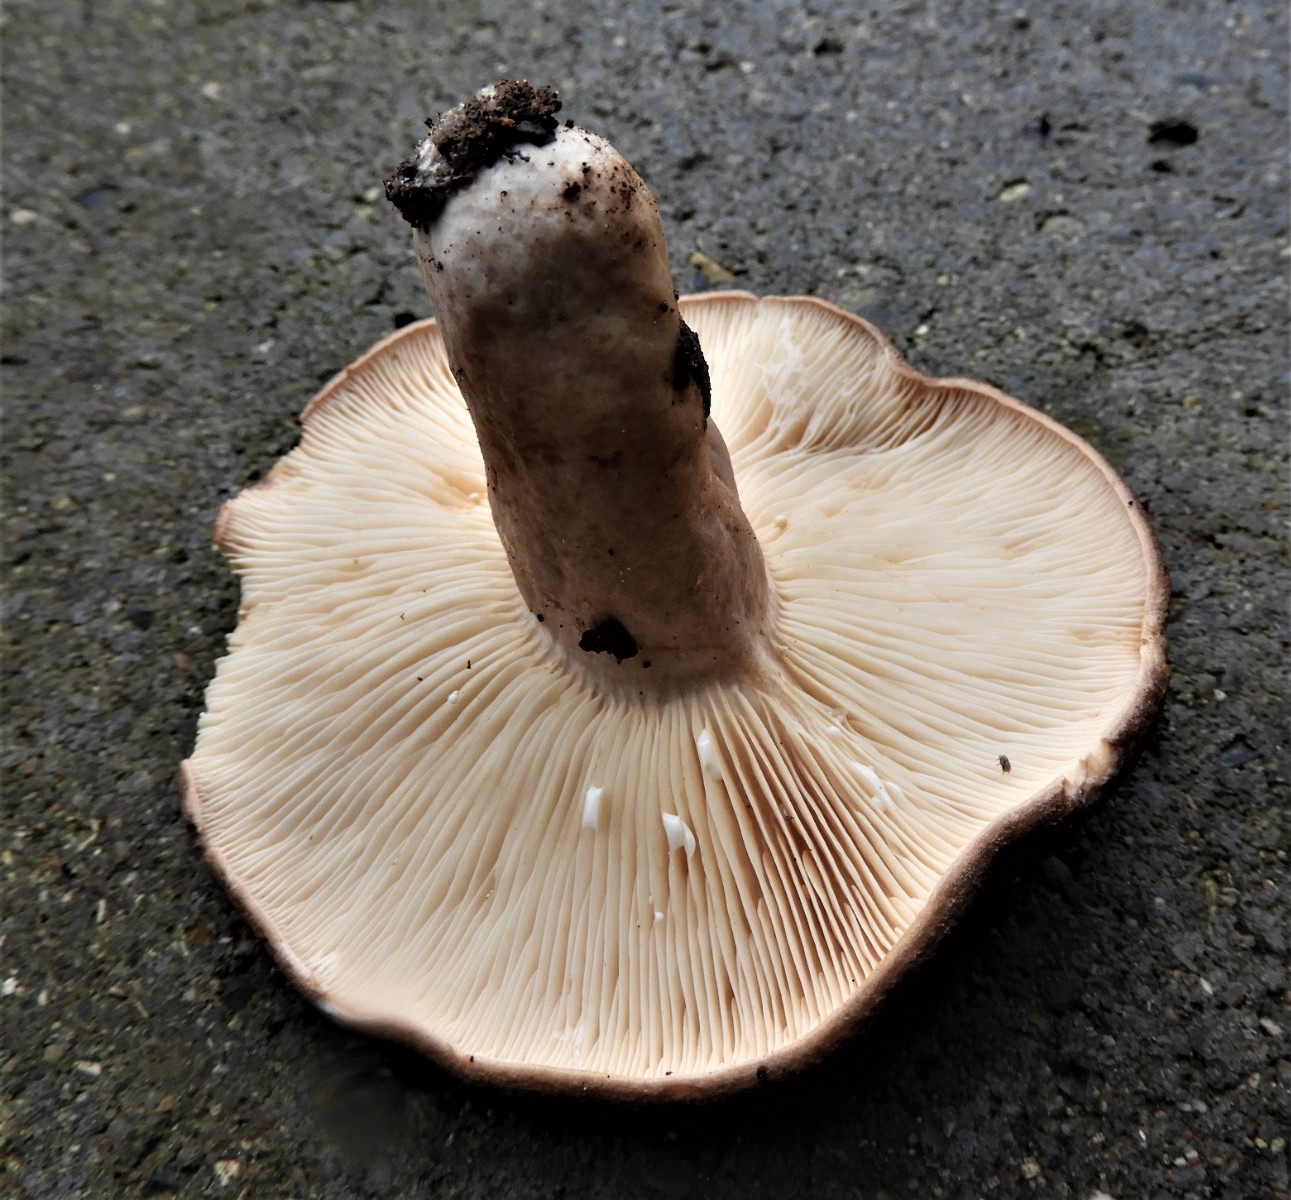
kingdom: Fungi
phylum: Basidiomycota
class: Agaricomycetes
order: Russulales
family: Russulaceae
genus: Lactarius
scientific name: Lactarius circellatus
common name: avnbøg-mælkehat
